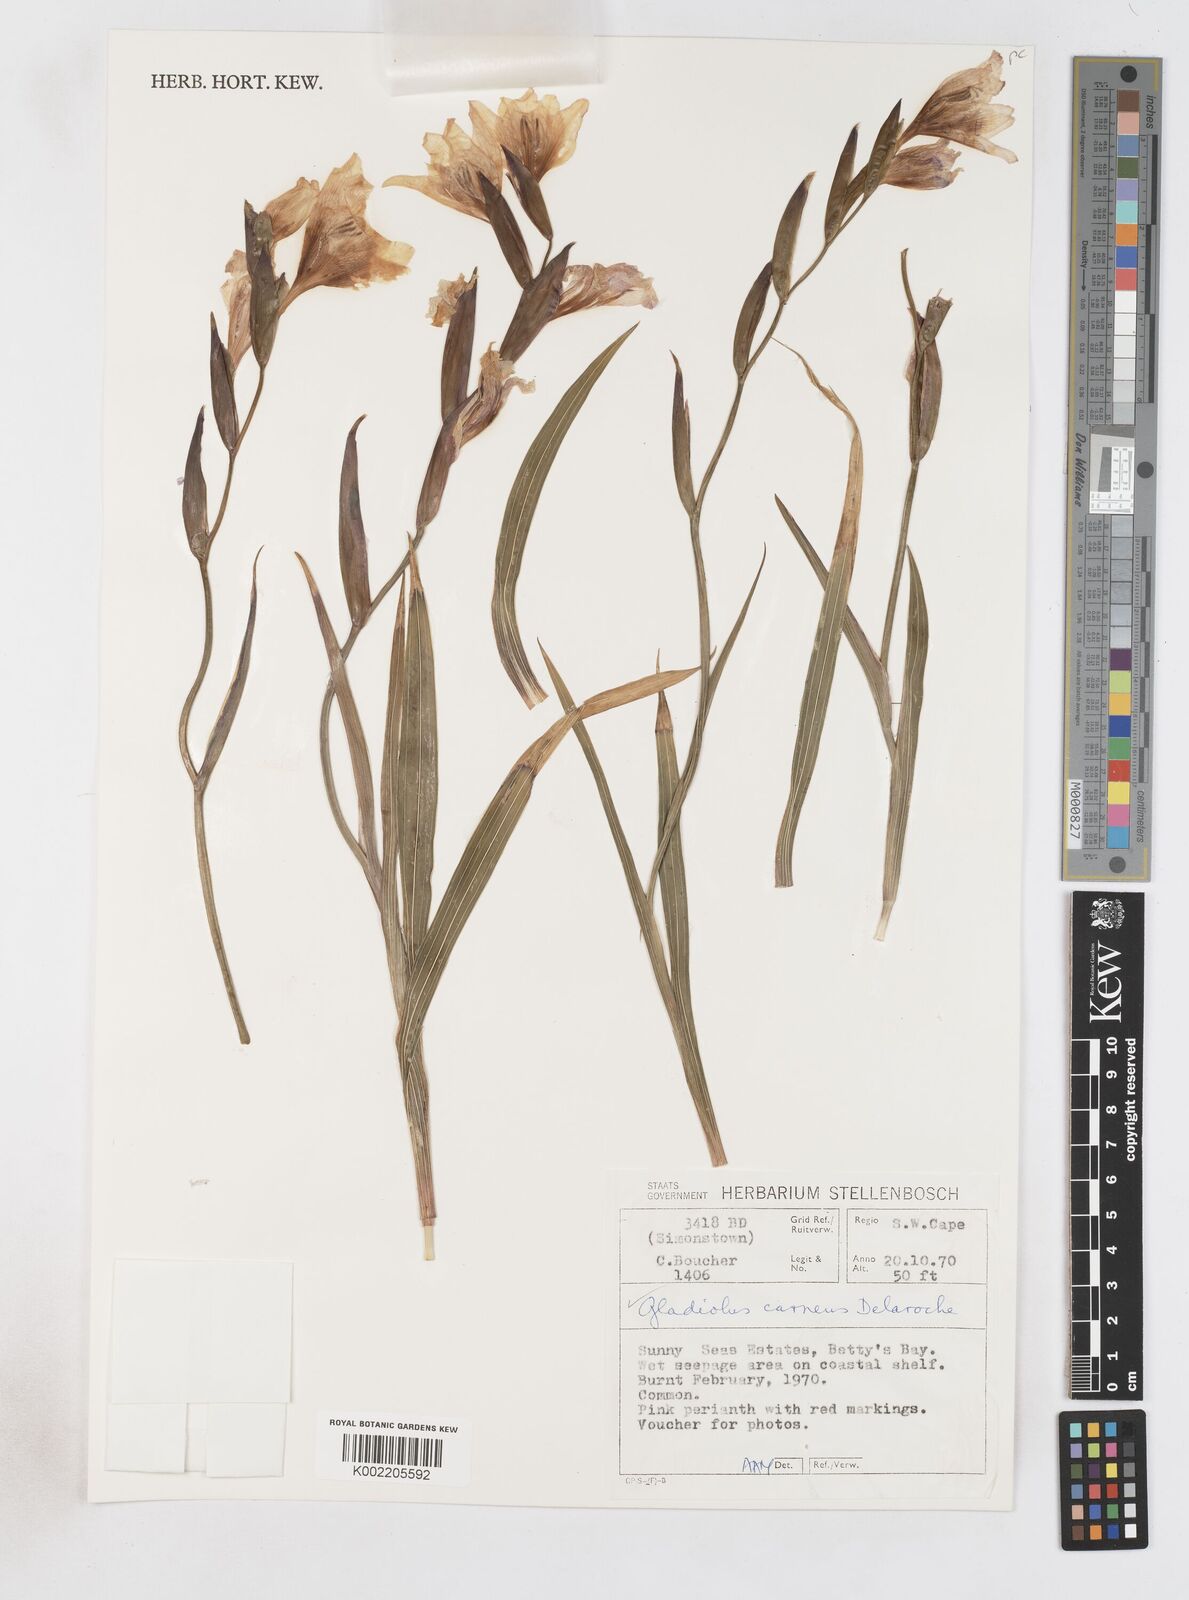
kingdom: Plantae
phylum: Tracheophyta
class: Liliopsida
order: Asparagales
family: Iridaceae
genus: Gladiolus
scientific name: Gladiolus carneus
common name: Painted-lady
